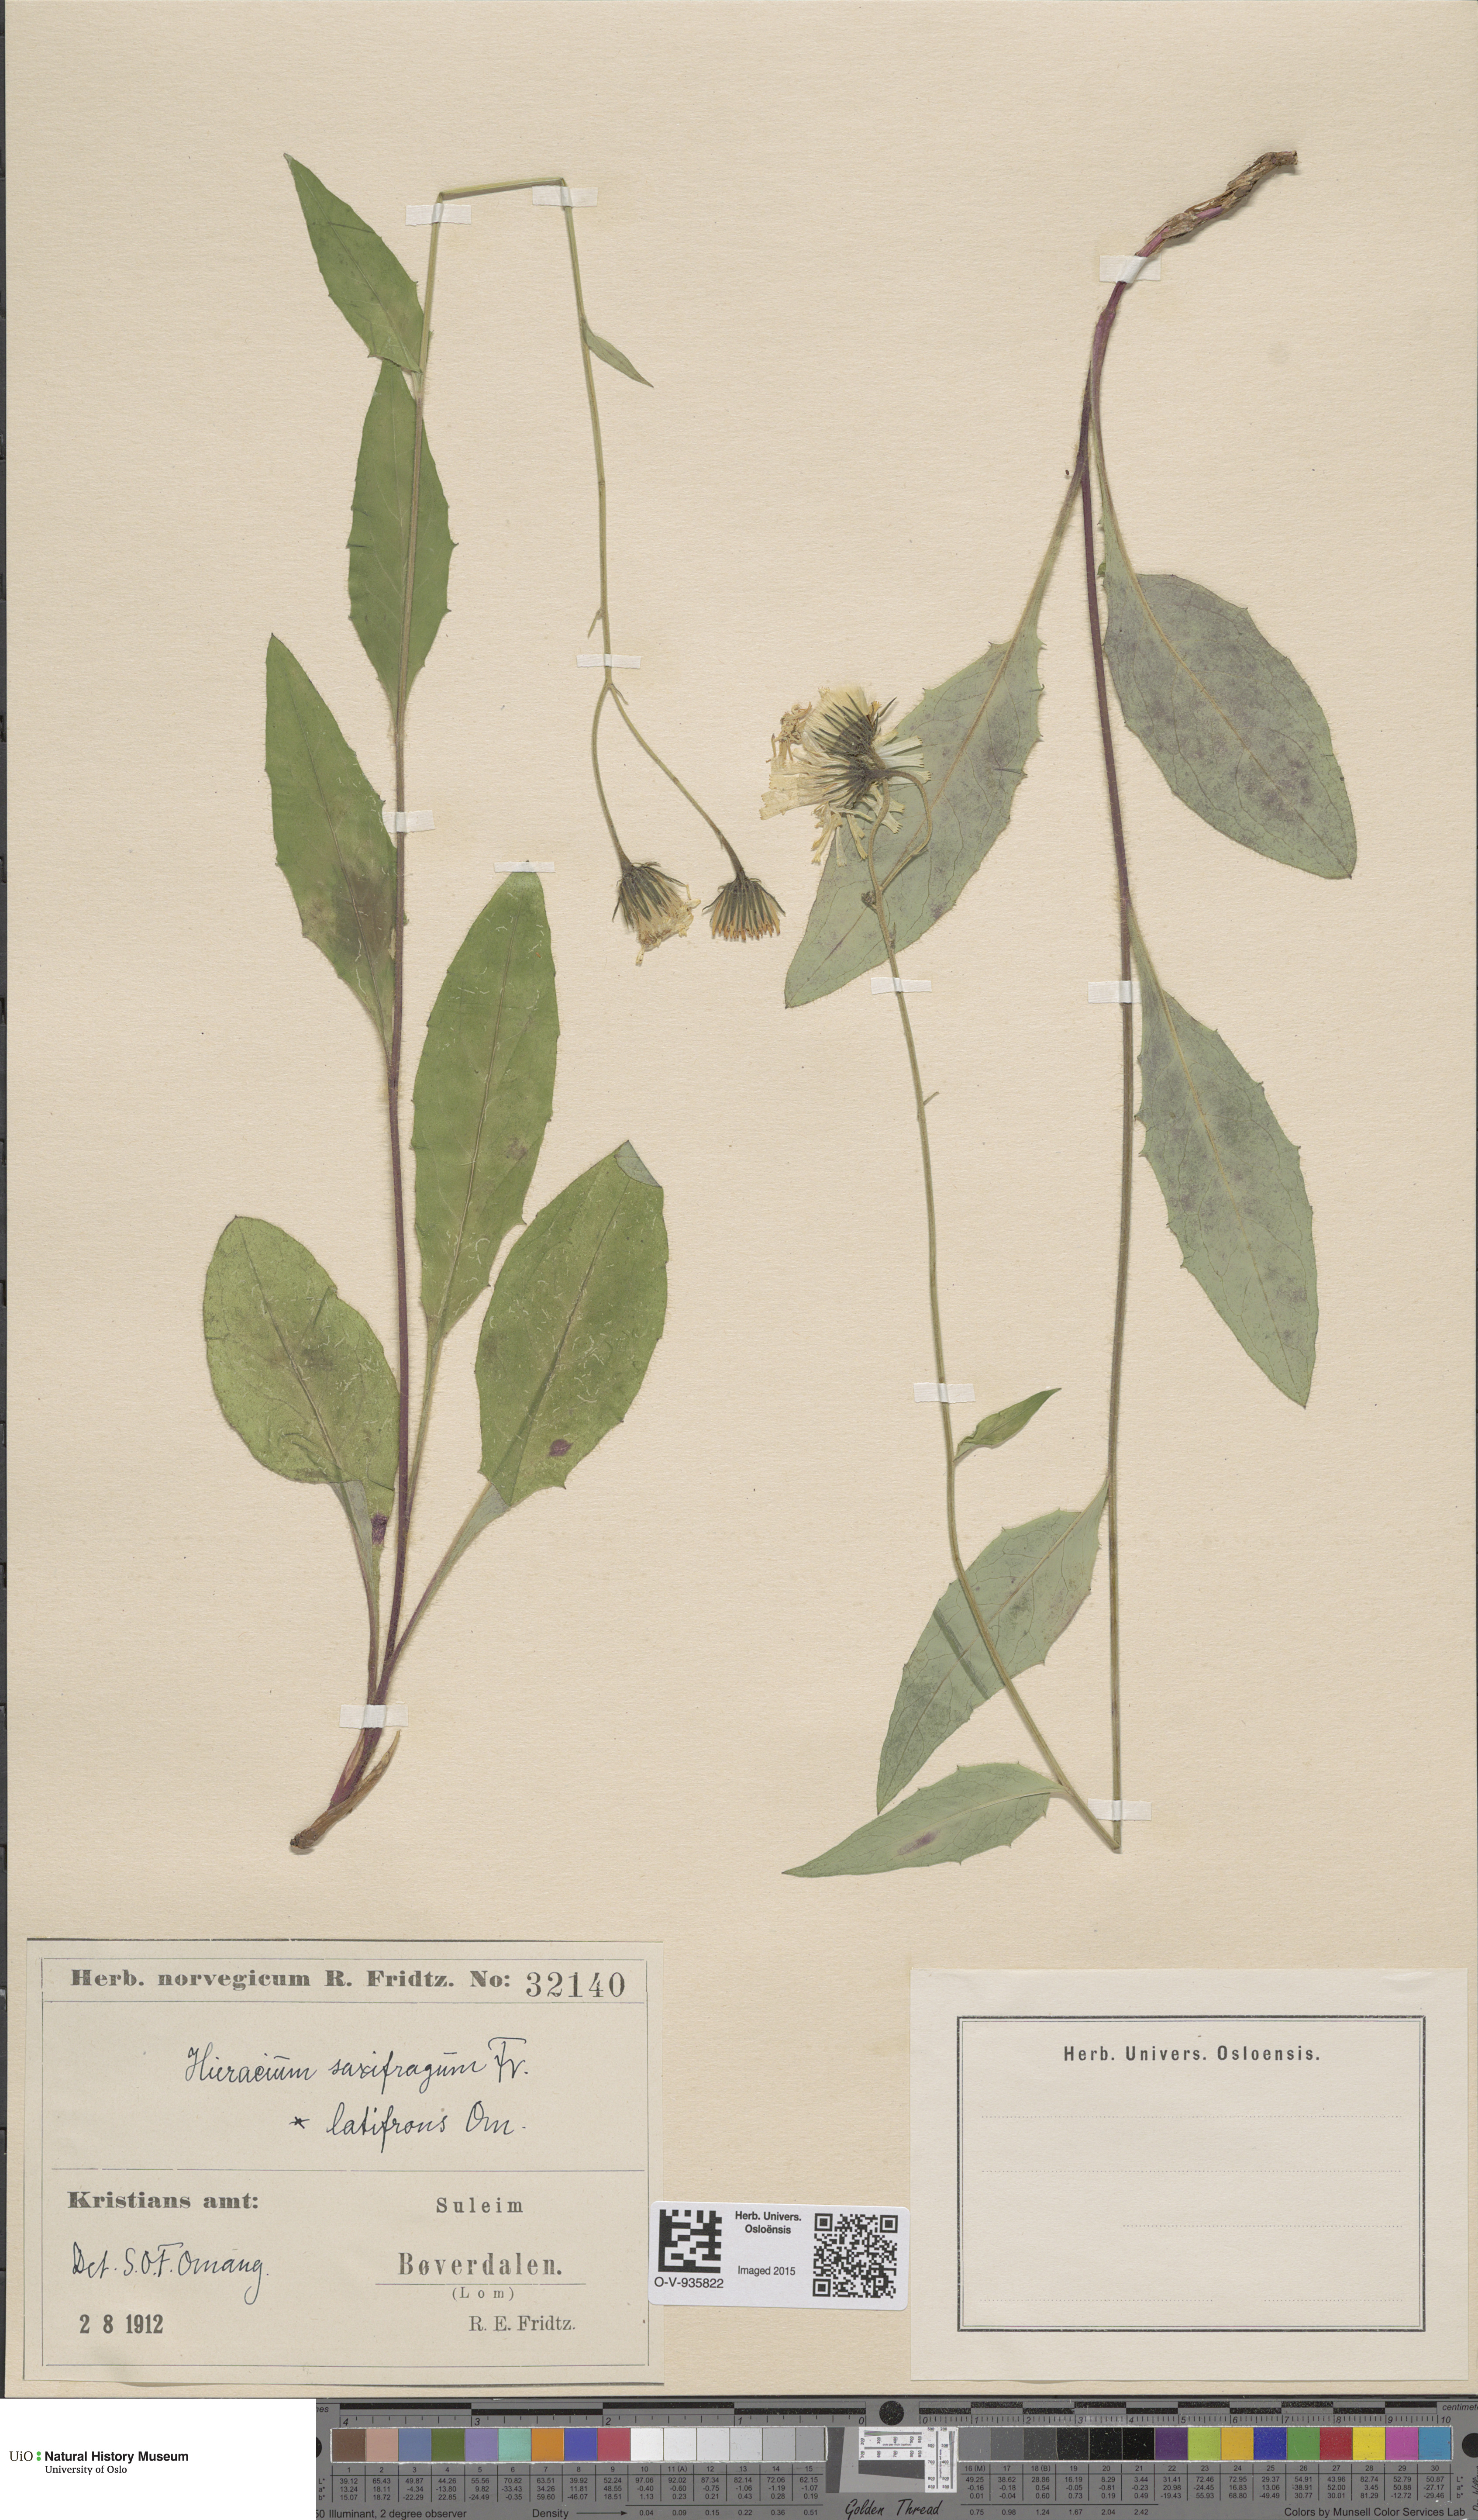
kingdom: Plantae
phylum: Tracheophyta
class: Magnoliopsida
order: Asterales
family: Asteraceae
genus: Hieracium
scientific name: Hieracium saxifragum
